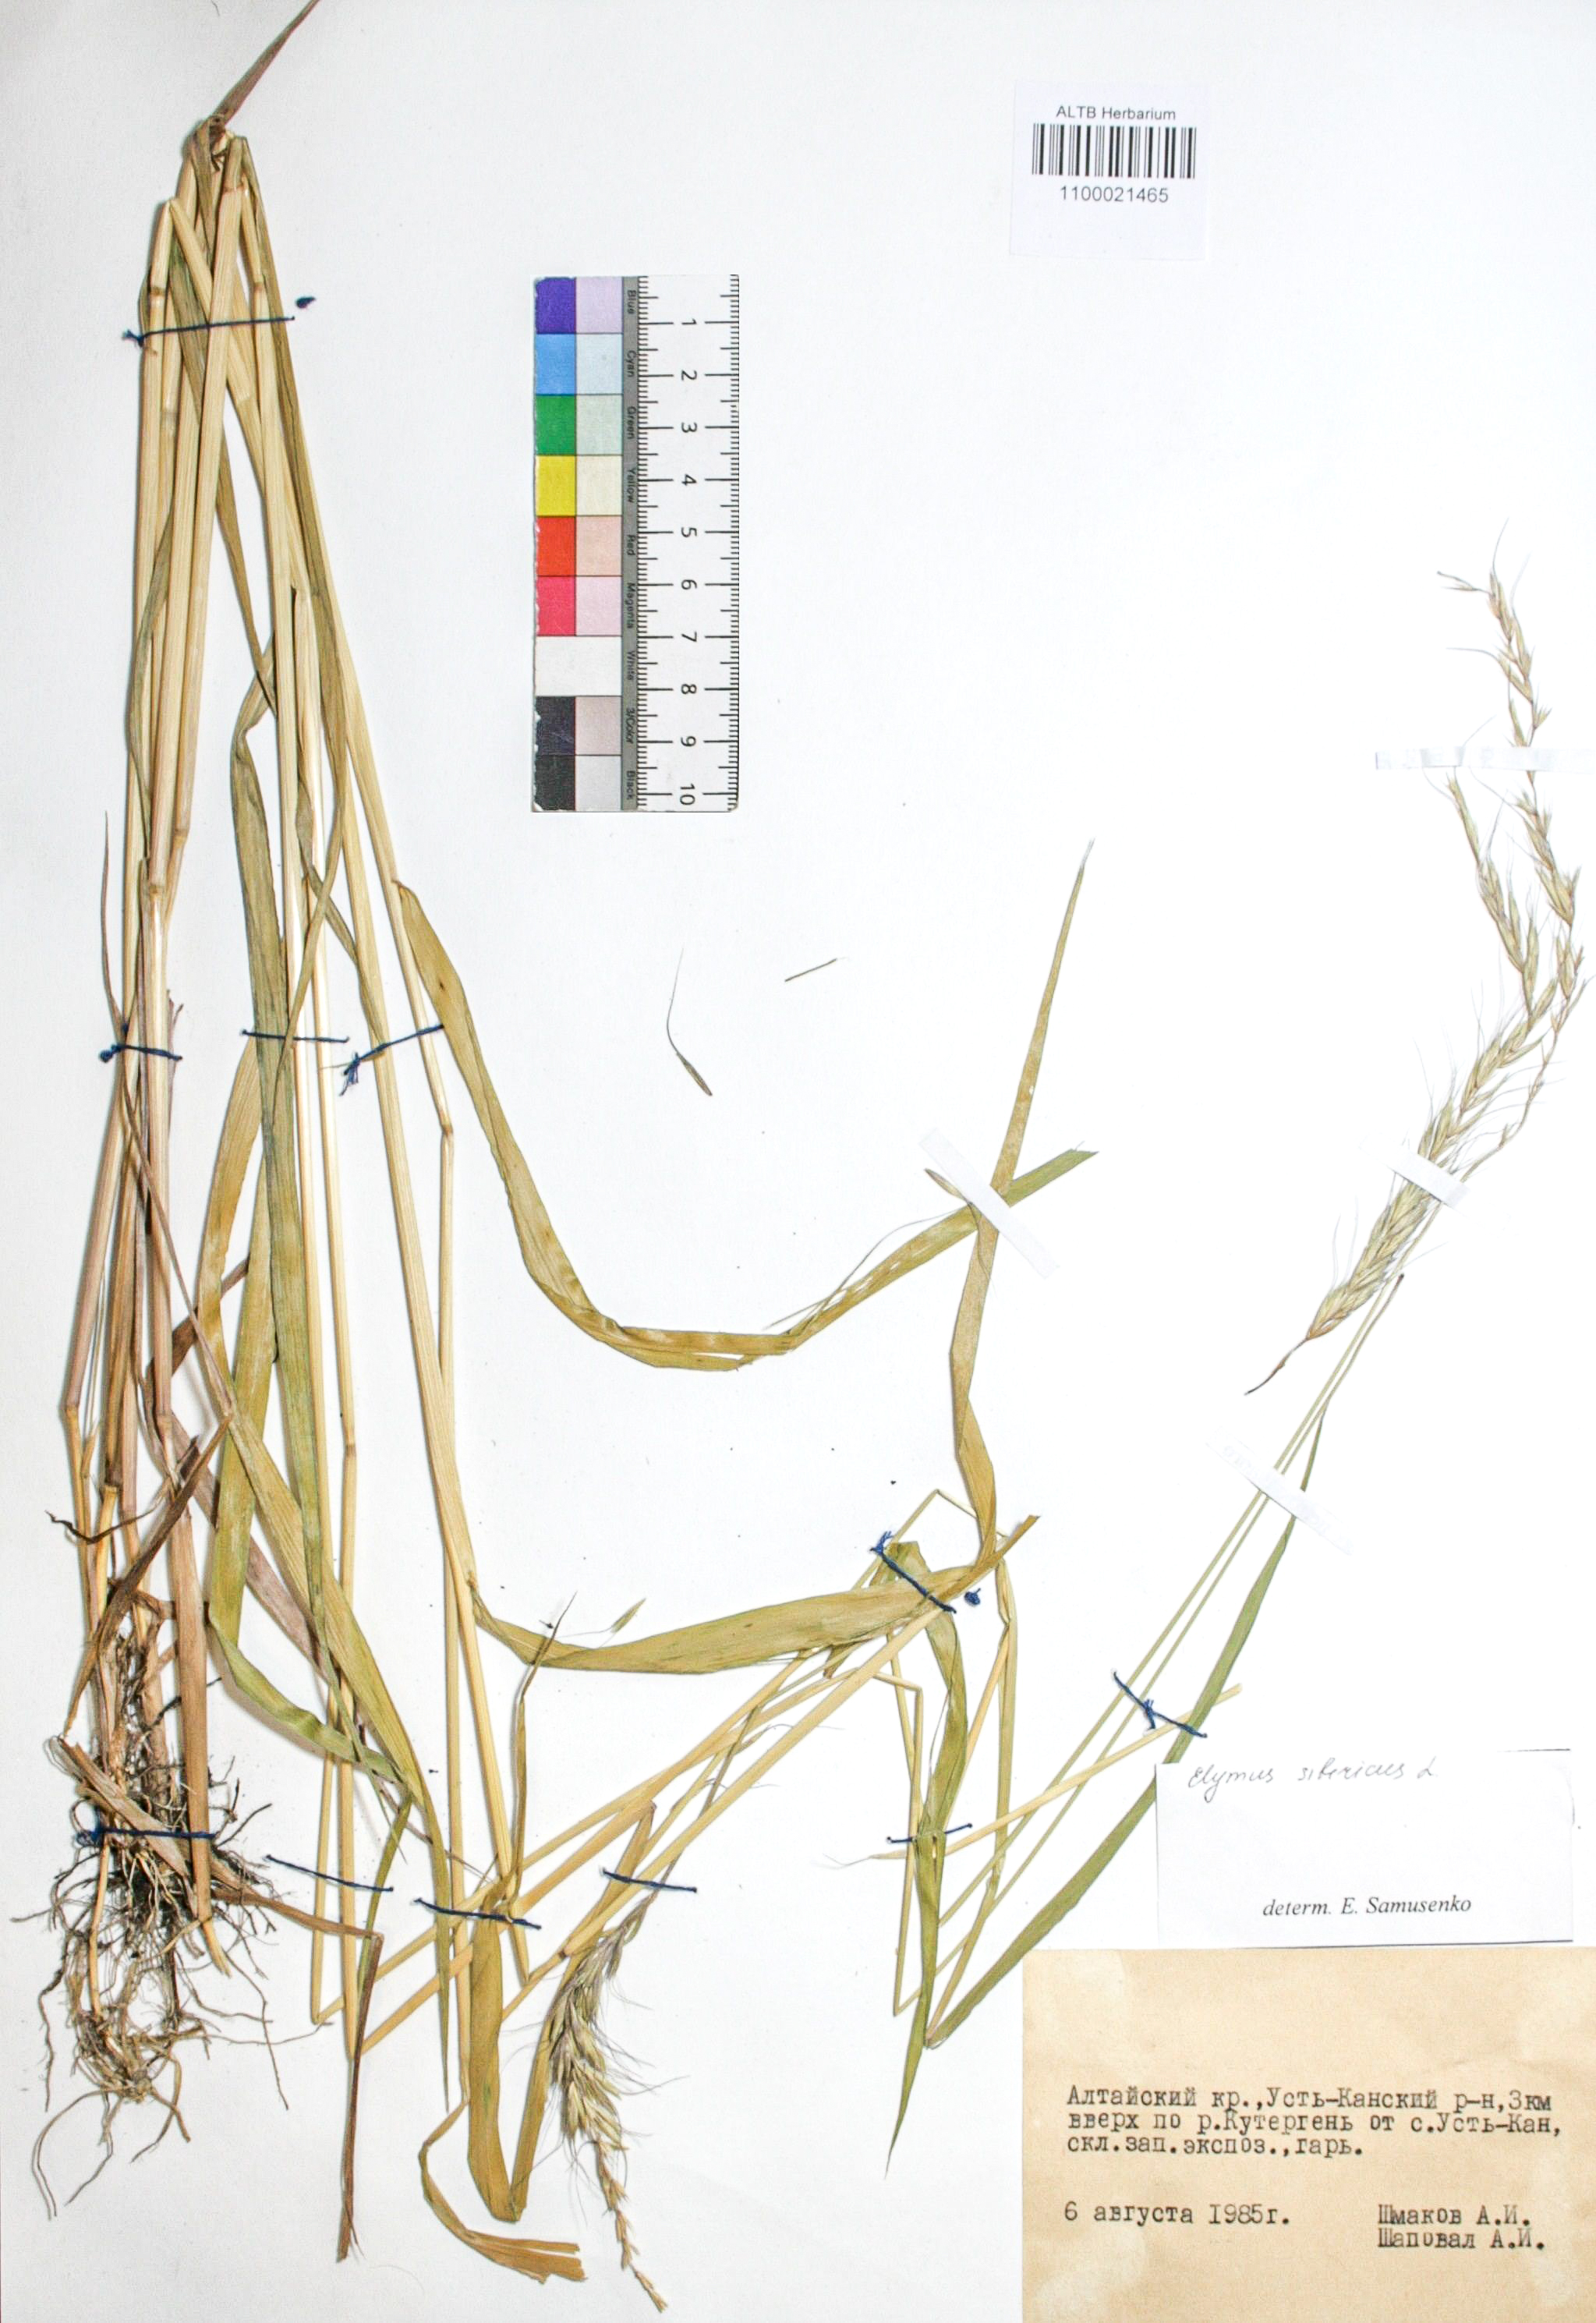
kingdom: Plantae
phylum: Tracheophyta
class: Liliopsida
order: Poales
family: Poaceae
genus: Elymus
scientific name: Elymus sibiricus
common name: Siberian wildrye
